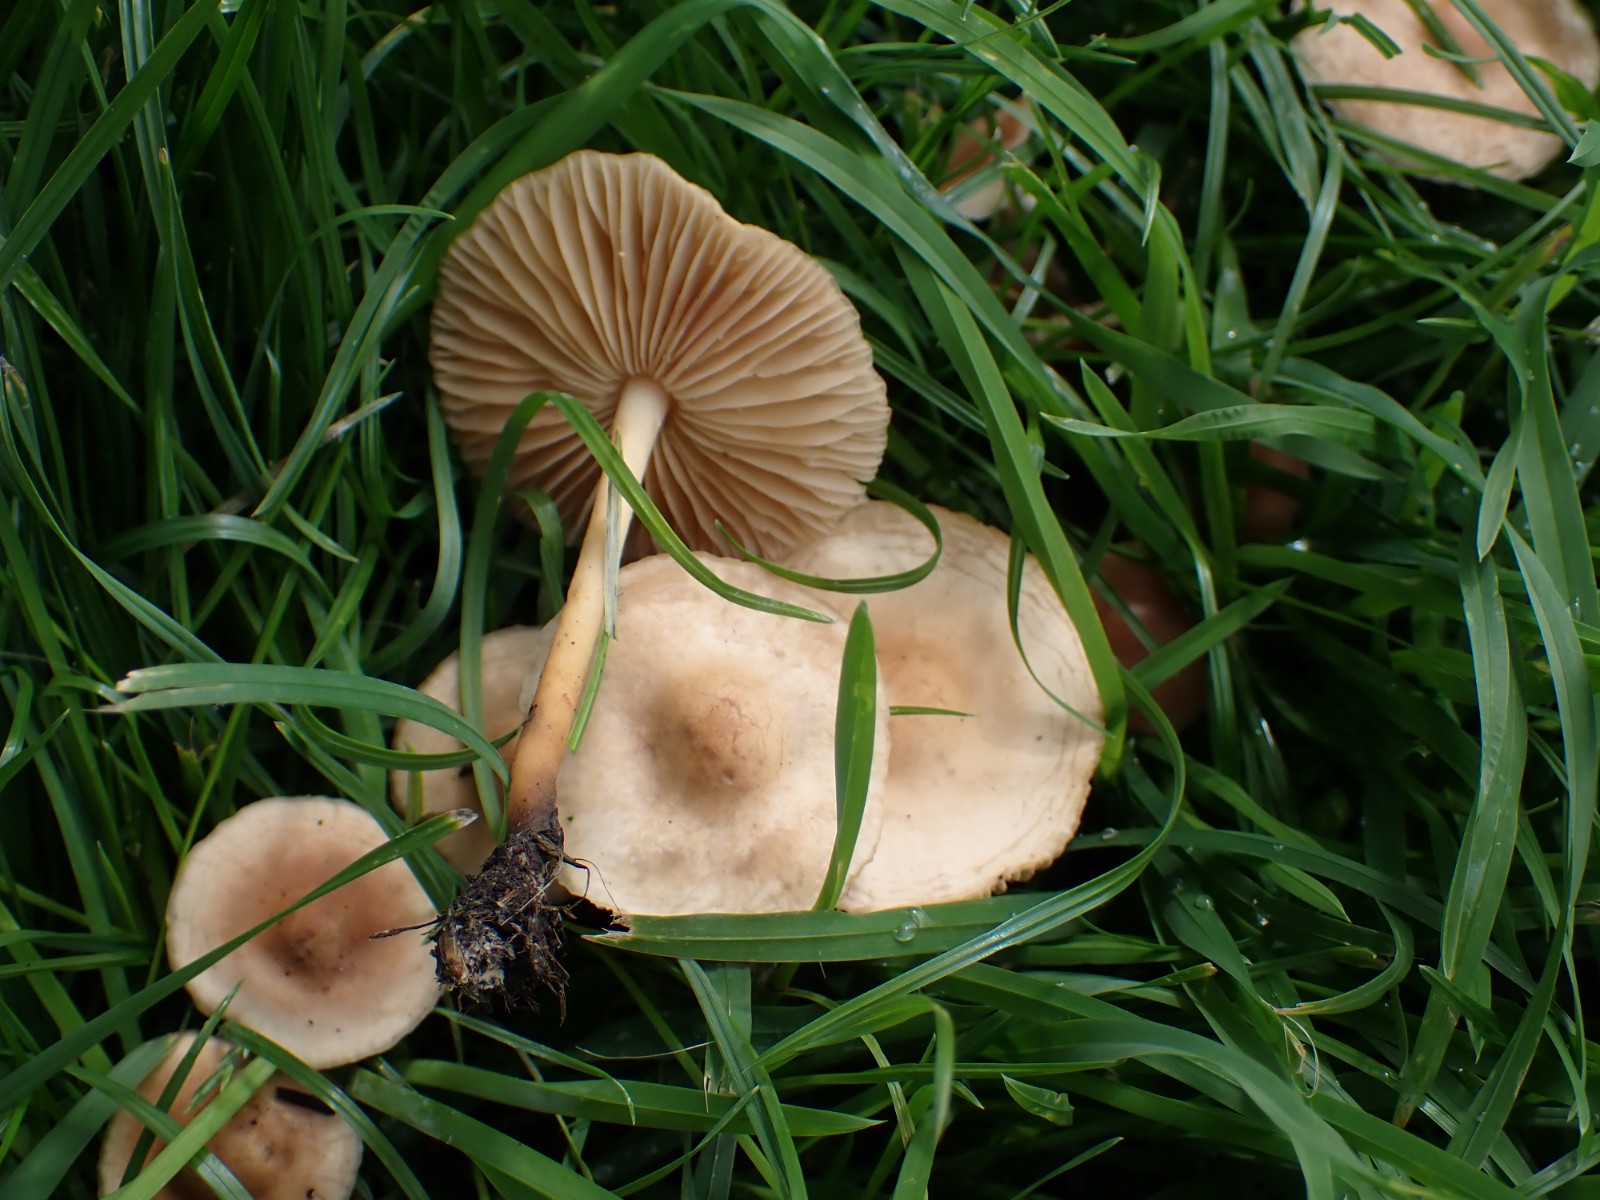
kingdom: Fungi
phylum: Basidiomycota
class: Agaricomycetes
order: Agaricales
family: Marasmiaceae
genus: Marasmius
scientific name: Marasmius oreades
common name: elledans-bruskhat
